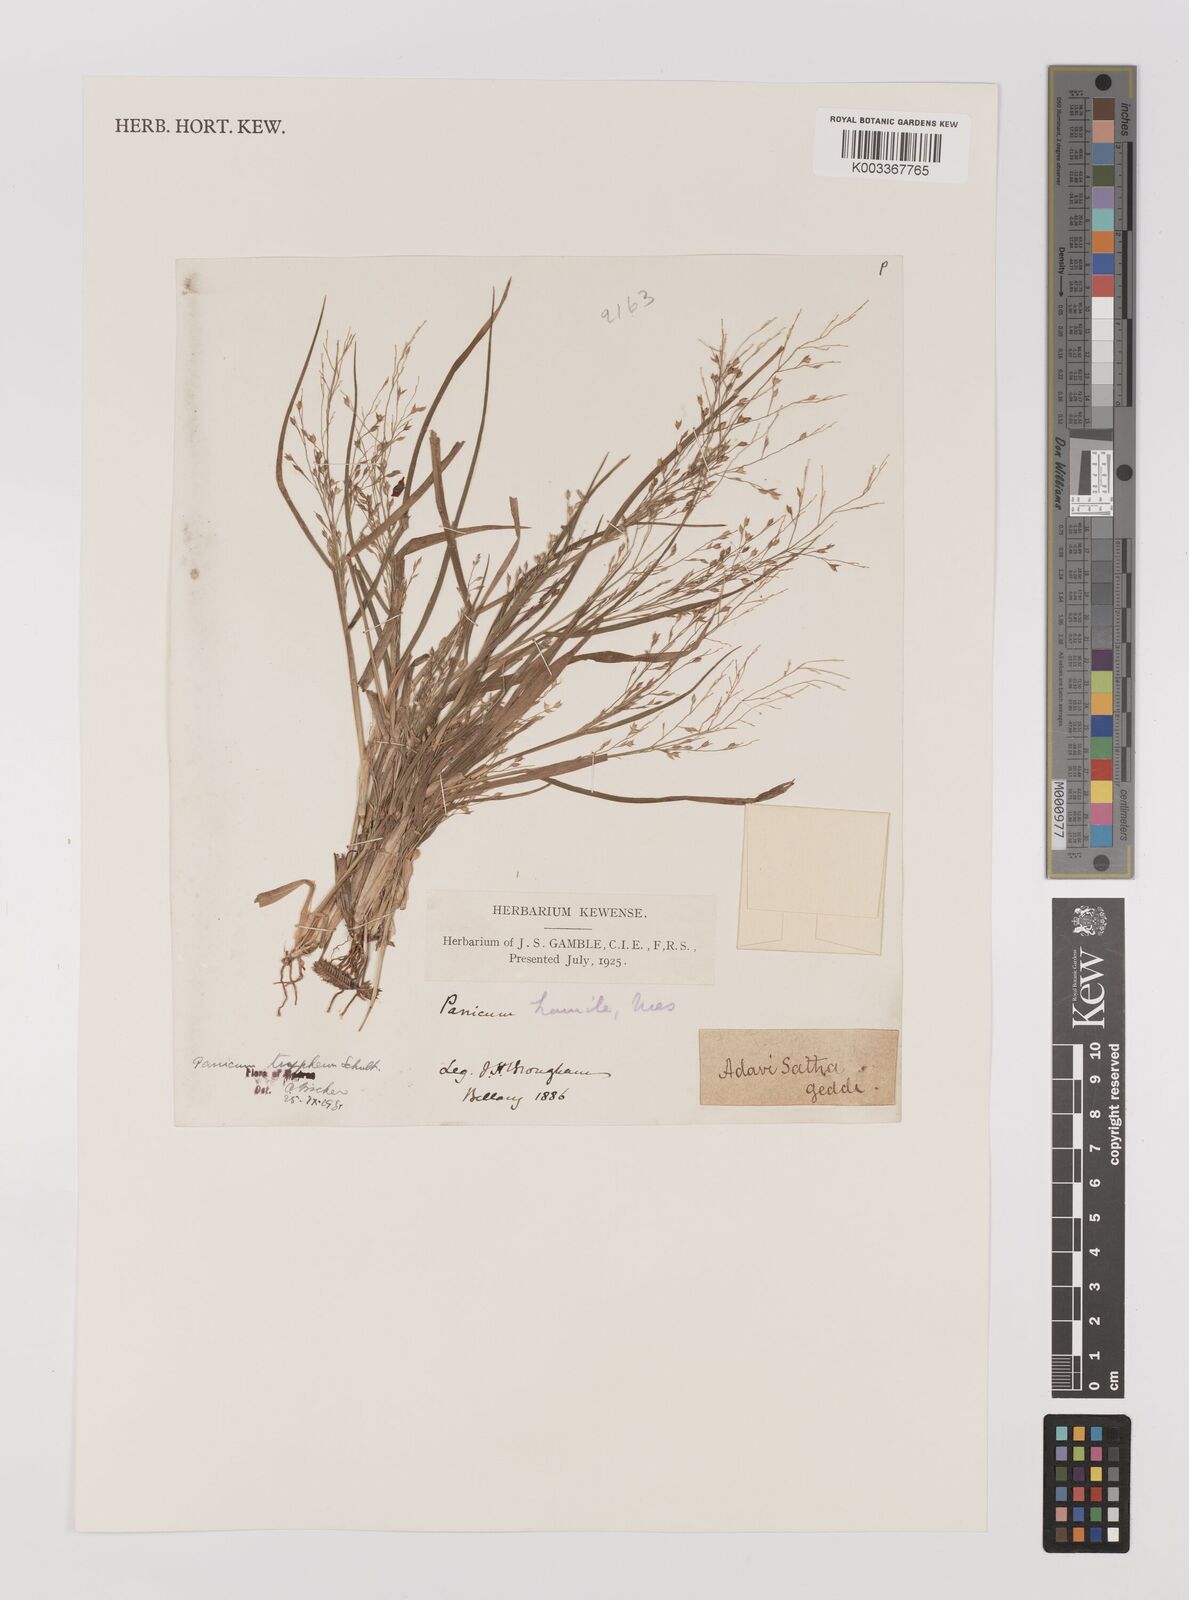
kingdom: Plantae
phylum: Tracheophyta
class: Liliopsida
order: Poales
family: Poaceae
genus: Panicum
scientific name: Panicum curviflorum
